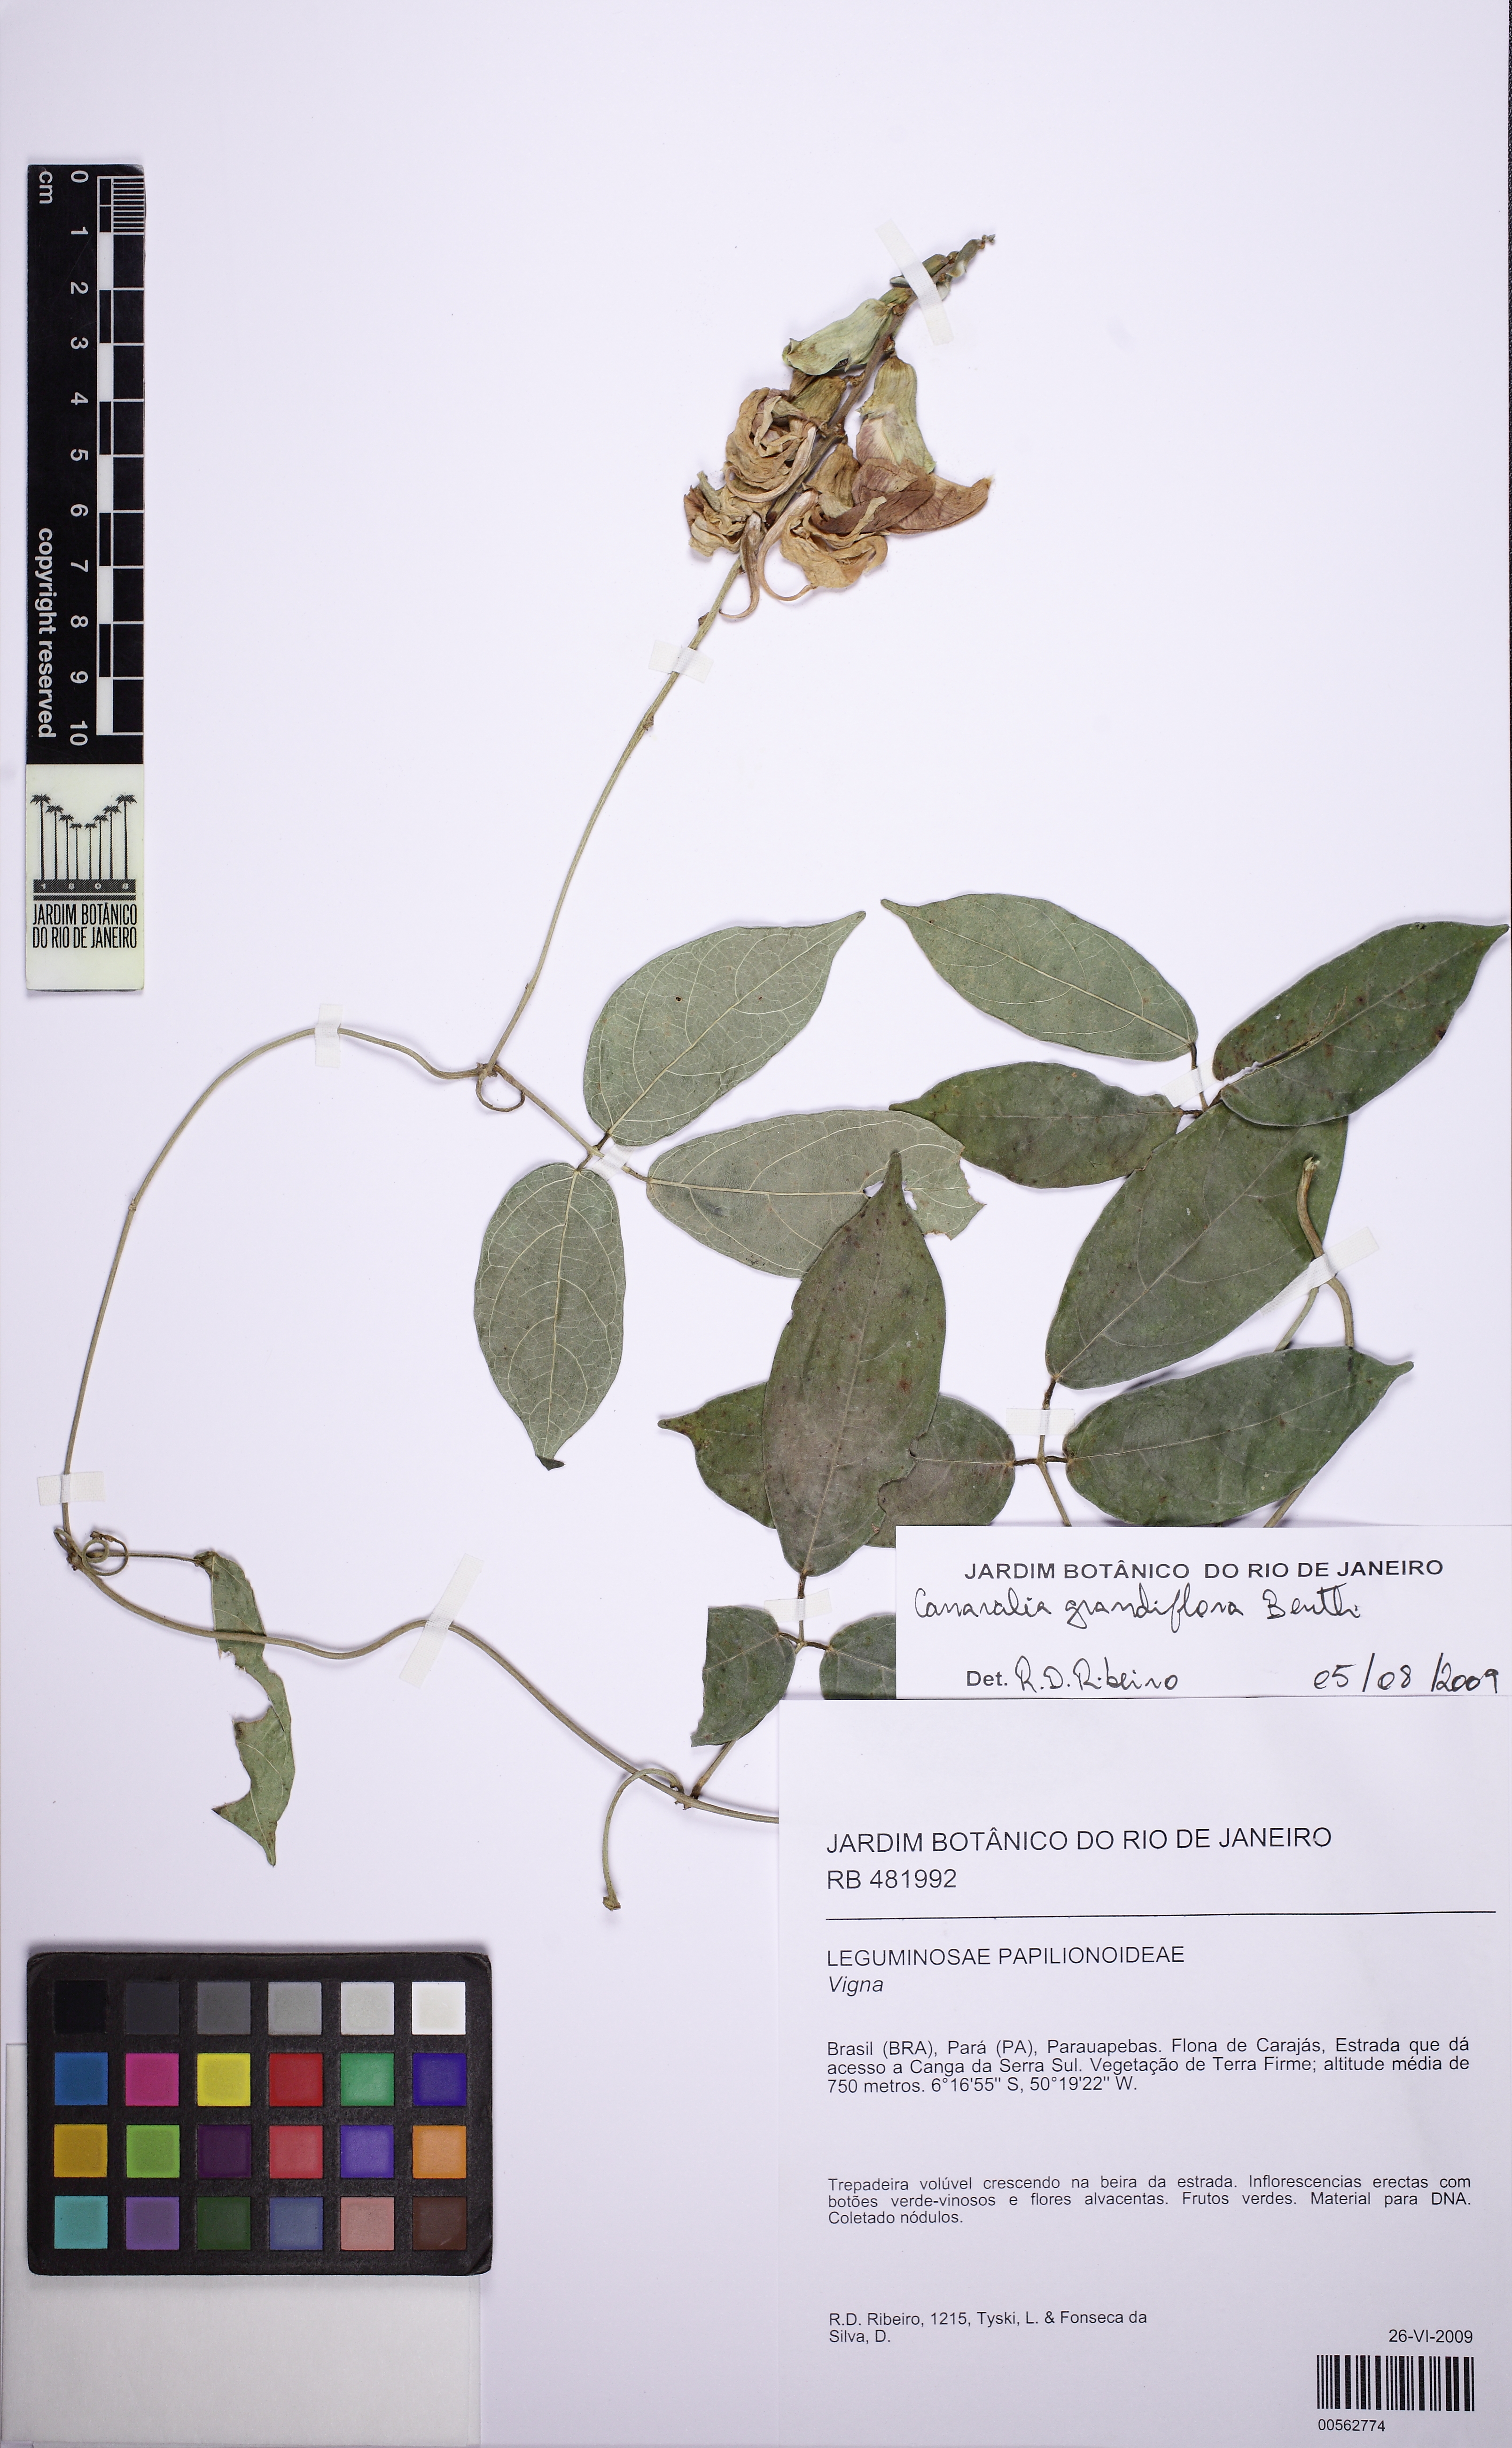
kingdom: Plantae
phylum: Tracheophyta
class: Magnoliopsida
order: Fabales
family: Fabaceae
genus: Canavalia
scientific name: Canavalia grandiflora
